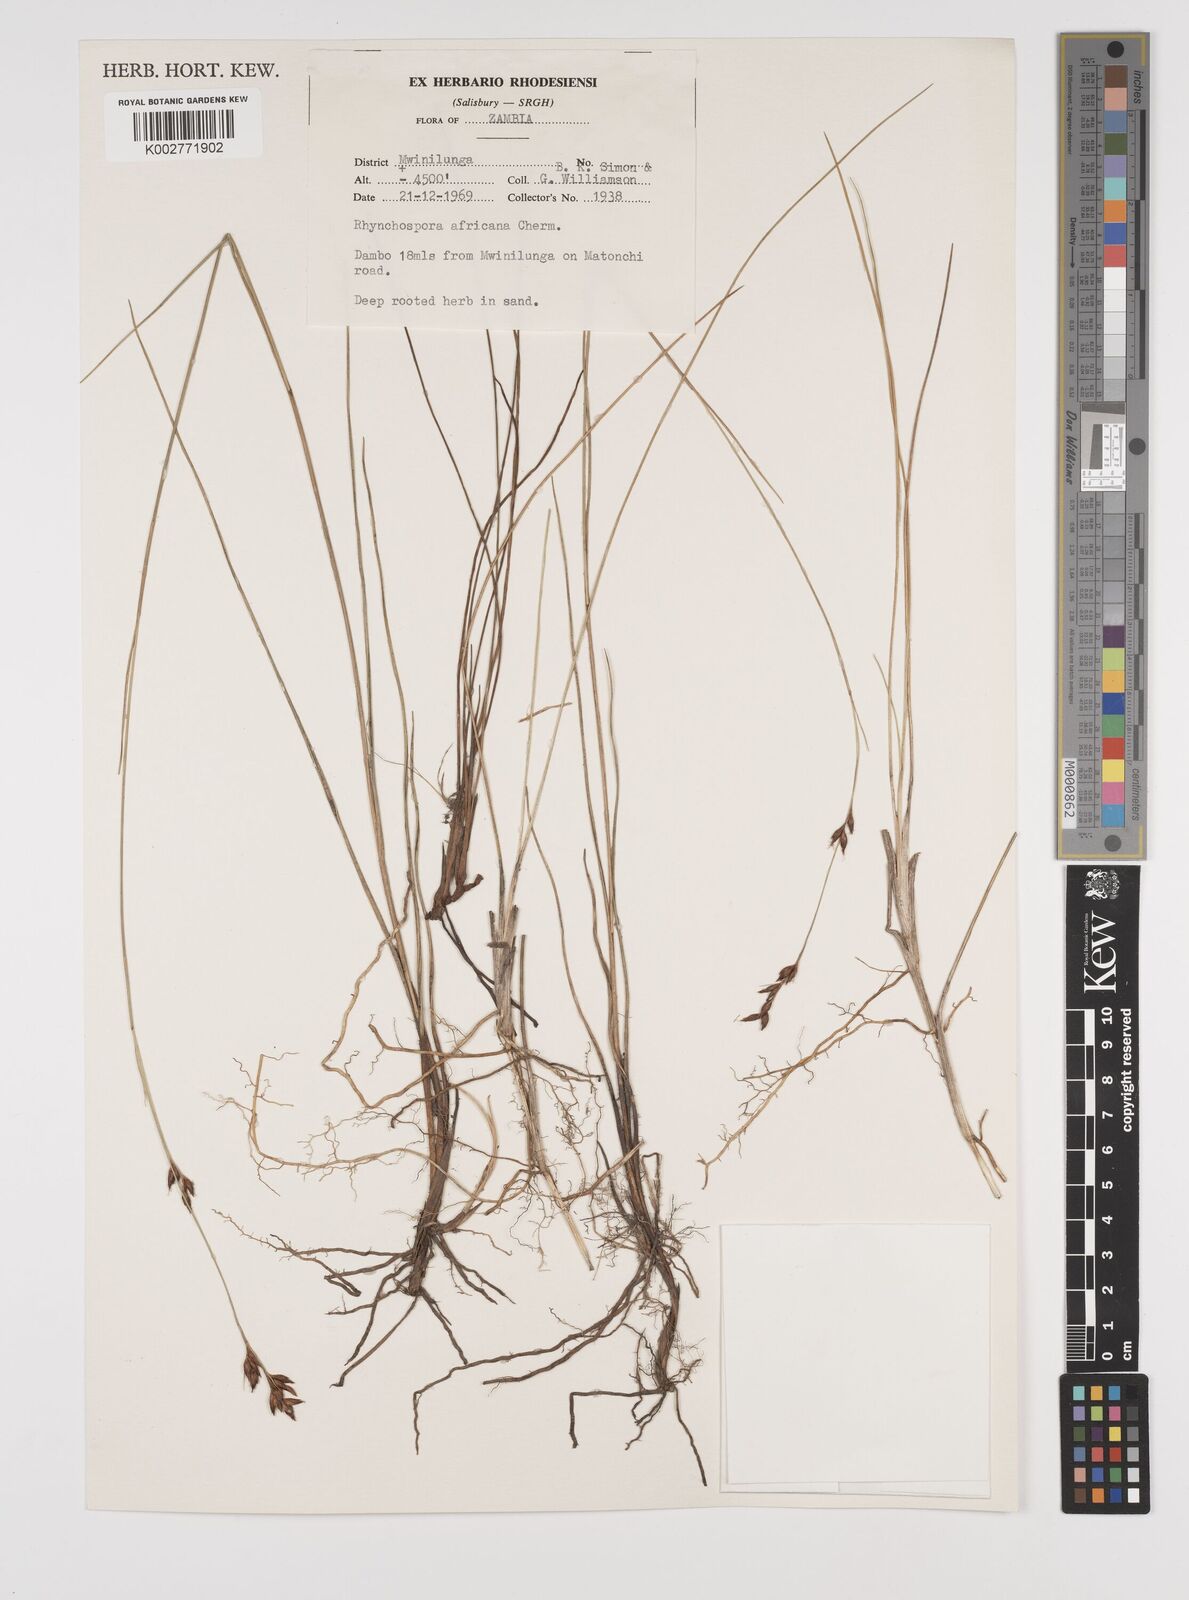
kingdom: Plantae
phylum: Tracheophyta
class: Liliopsida
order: Poales
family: Cyperaceae
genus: Rhynchospora
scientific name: Rhynchospora angolensis
